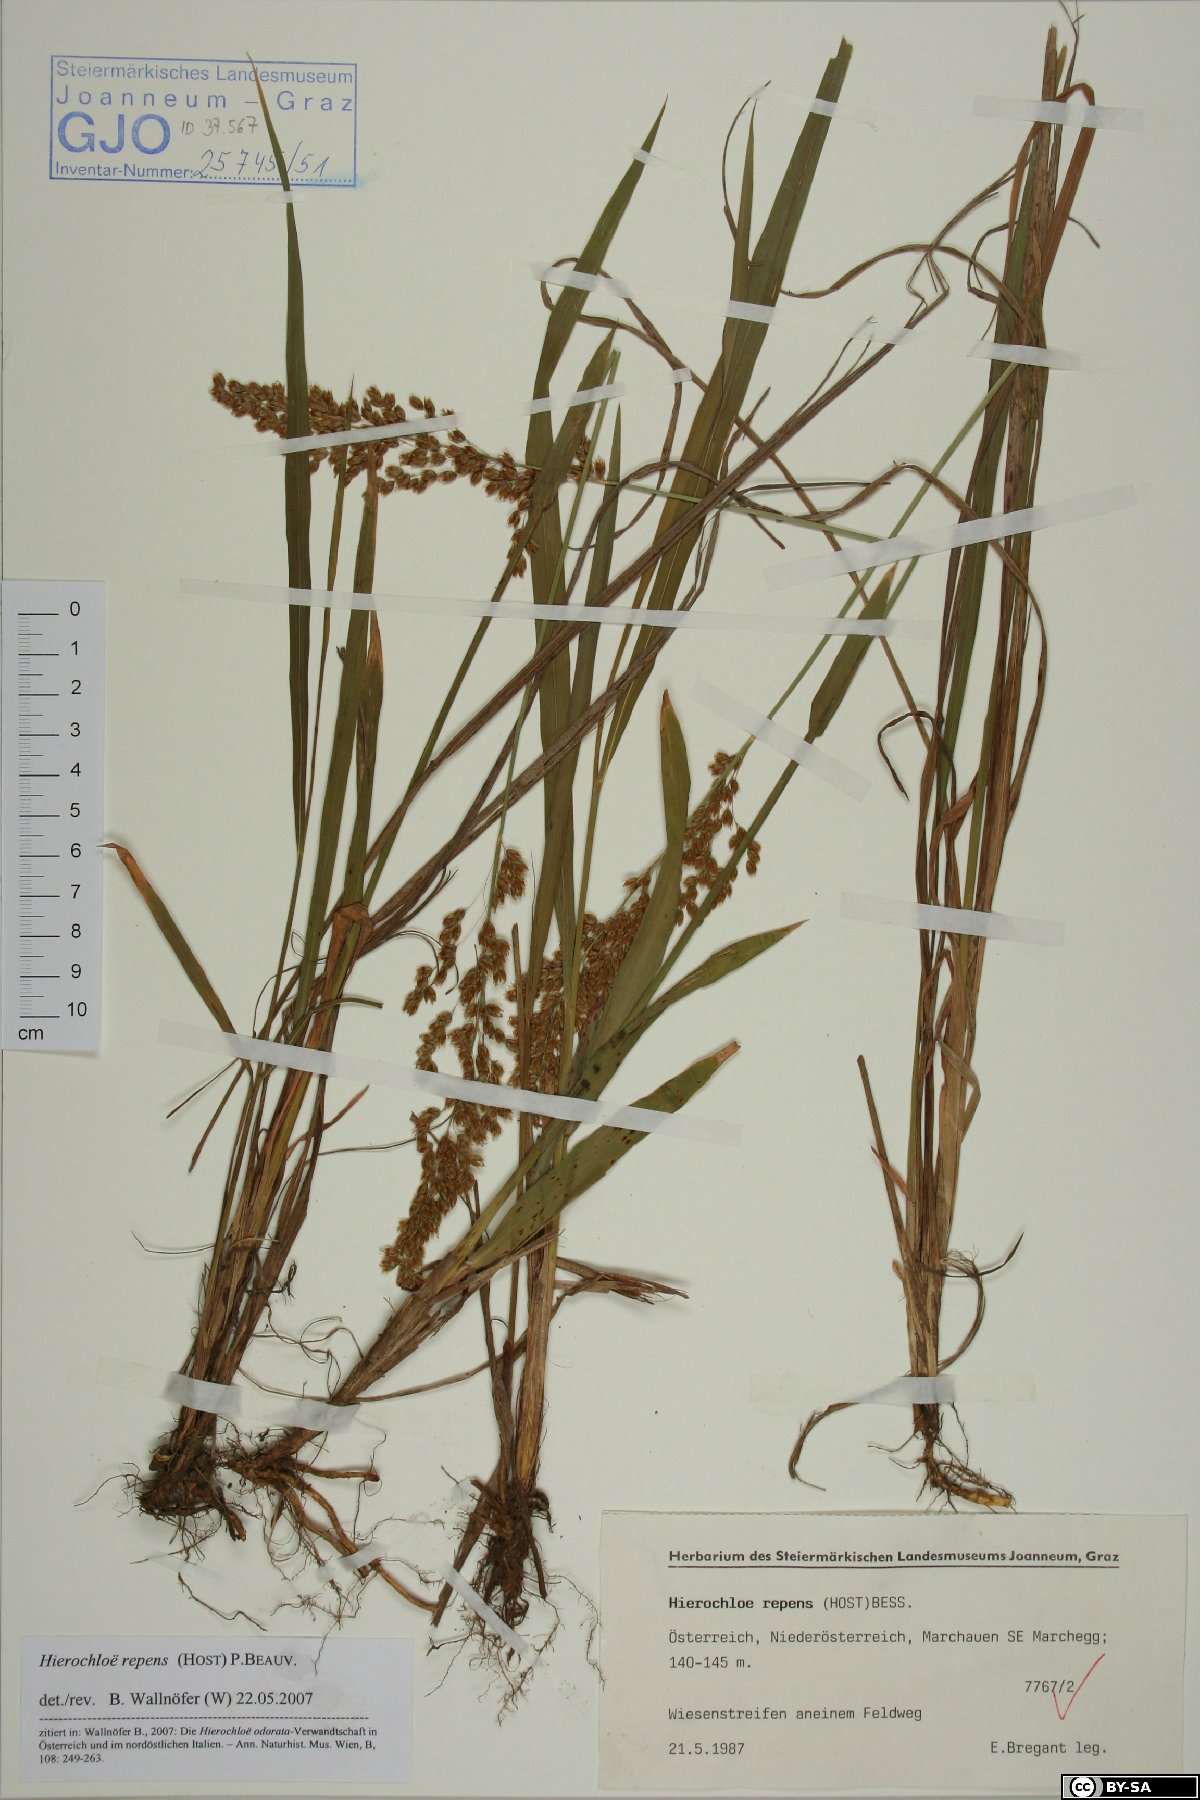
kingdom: Plantae
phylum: Tracheophyta
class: Liliopsida
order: Poales
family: Poaceae
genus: Anthoxanthum
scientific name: Anthoxanthum repens
